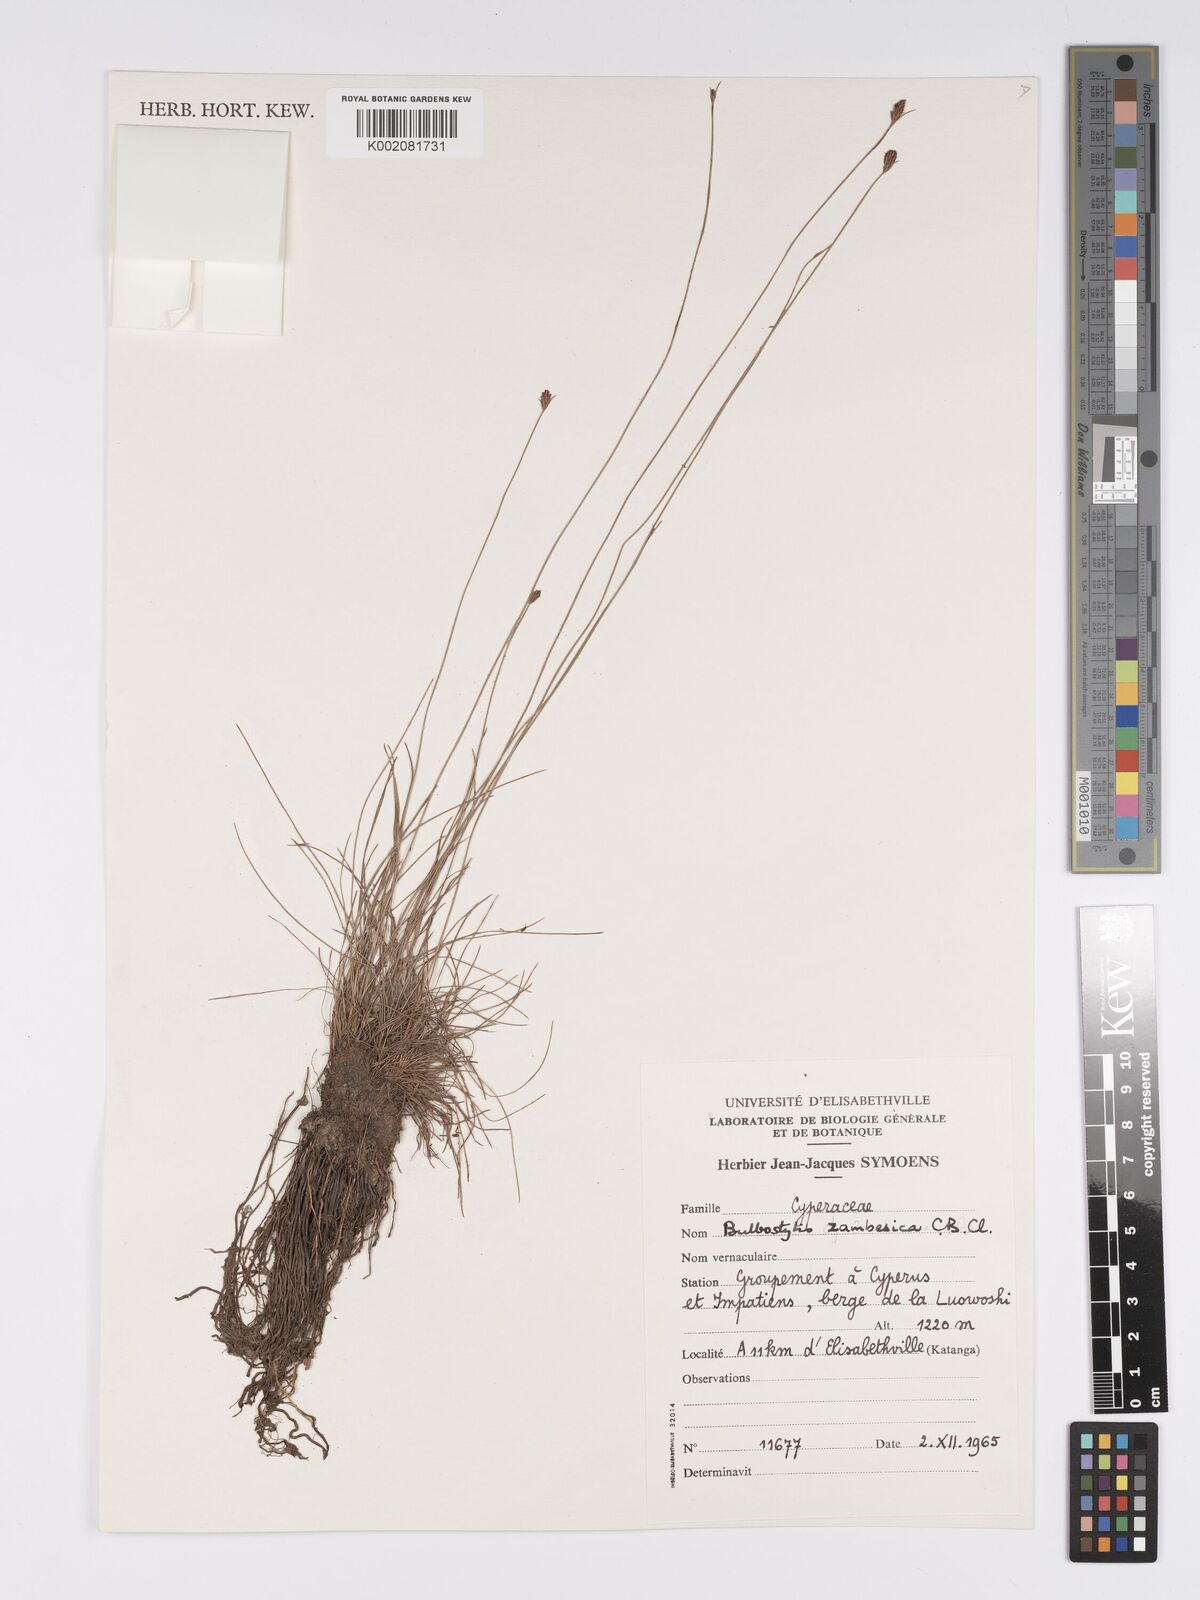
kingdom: Plantae
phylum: Tracheophyta
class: Liliopsida
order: Poales
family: Cyperaceae
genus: Bulbostylis
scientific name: Bulbostylis macra
